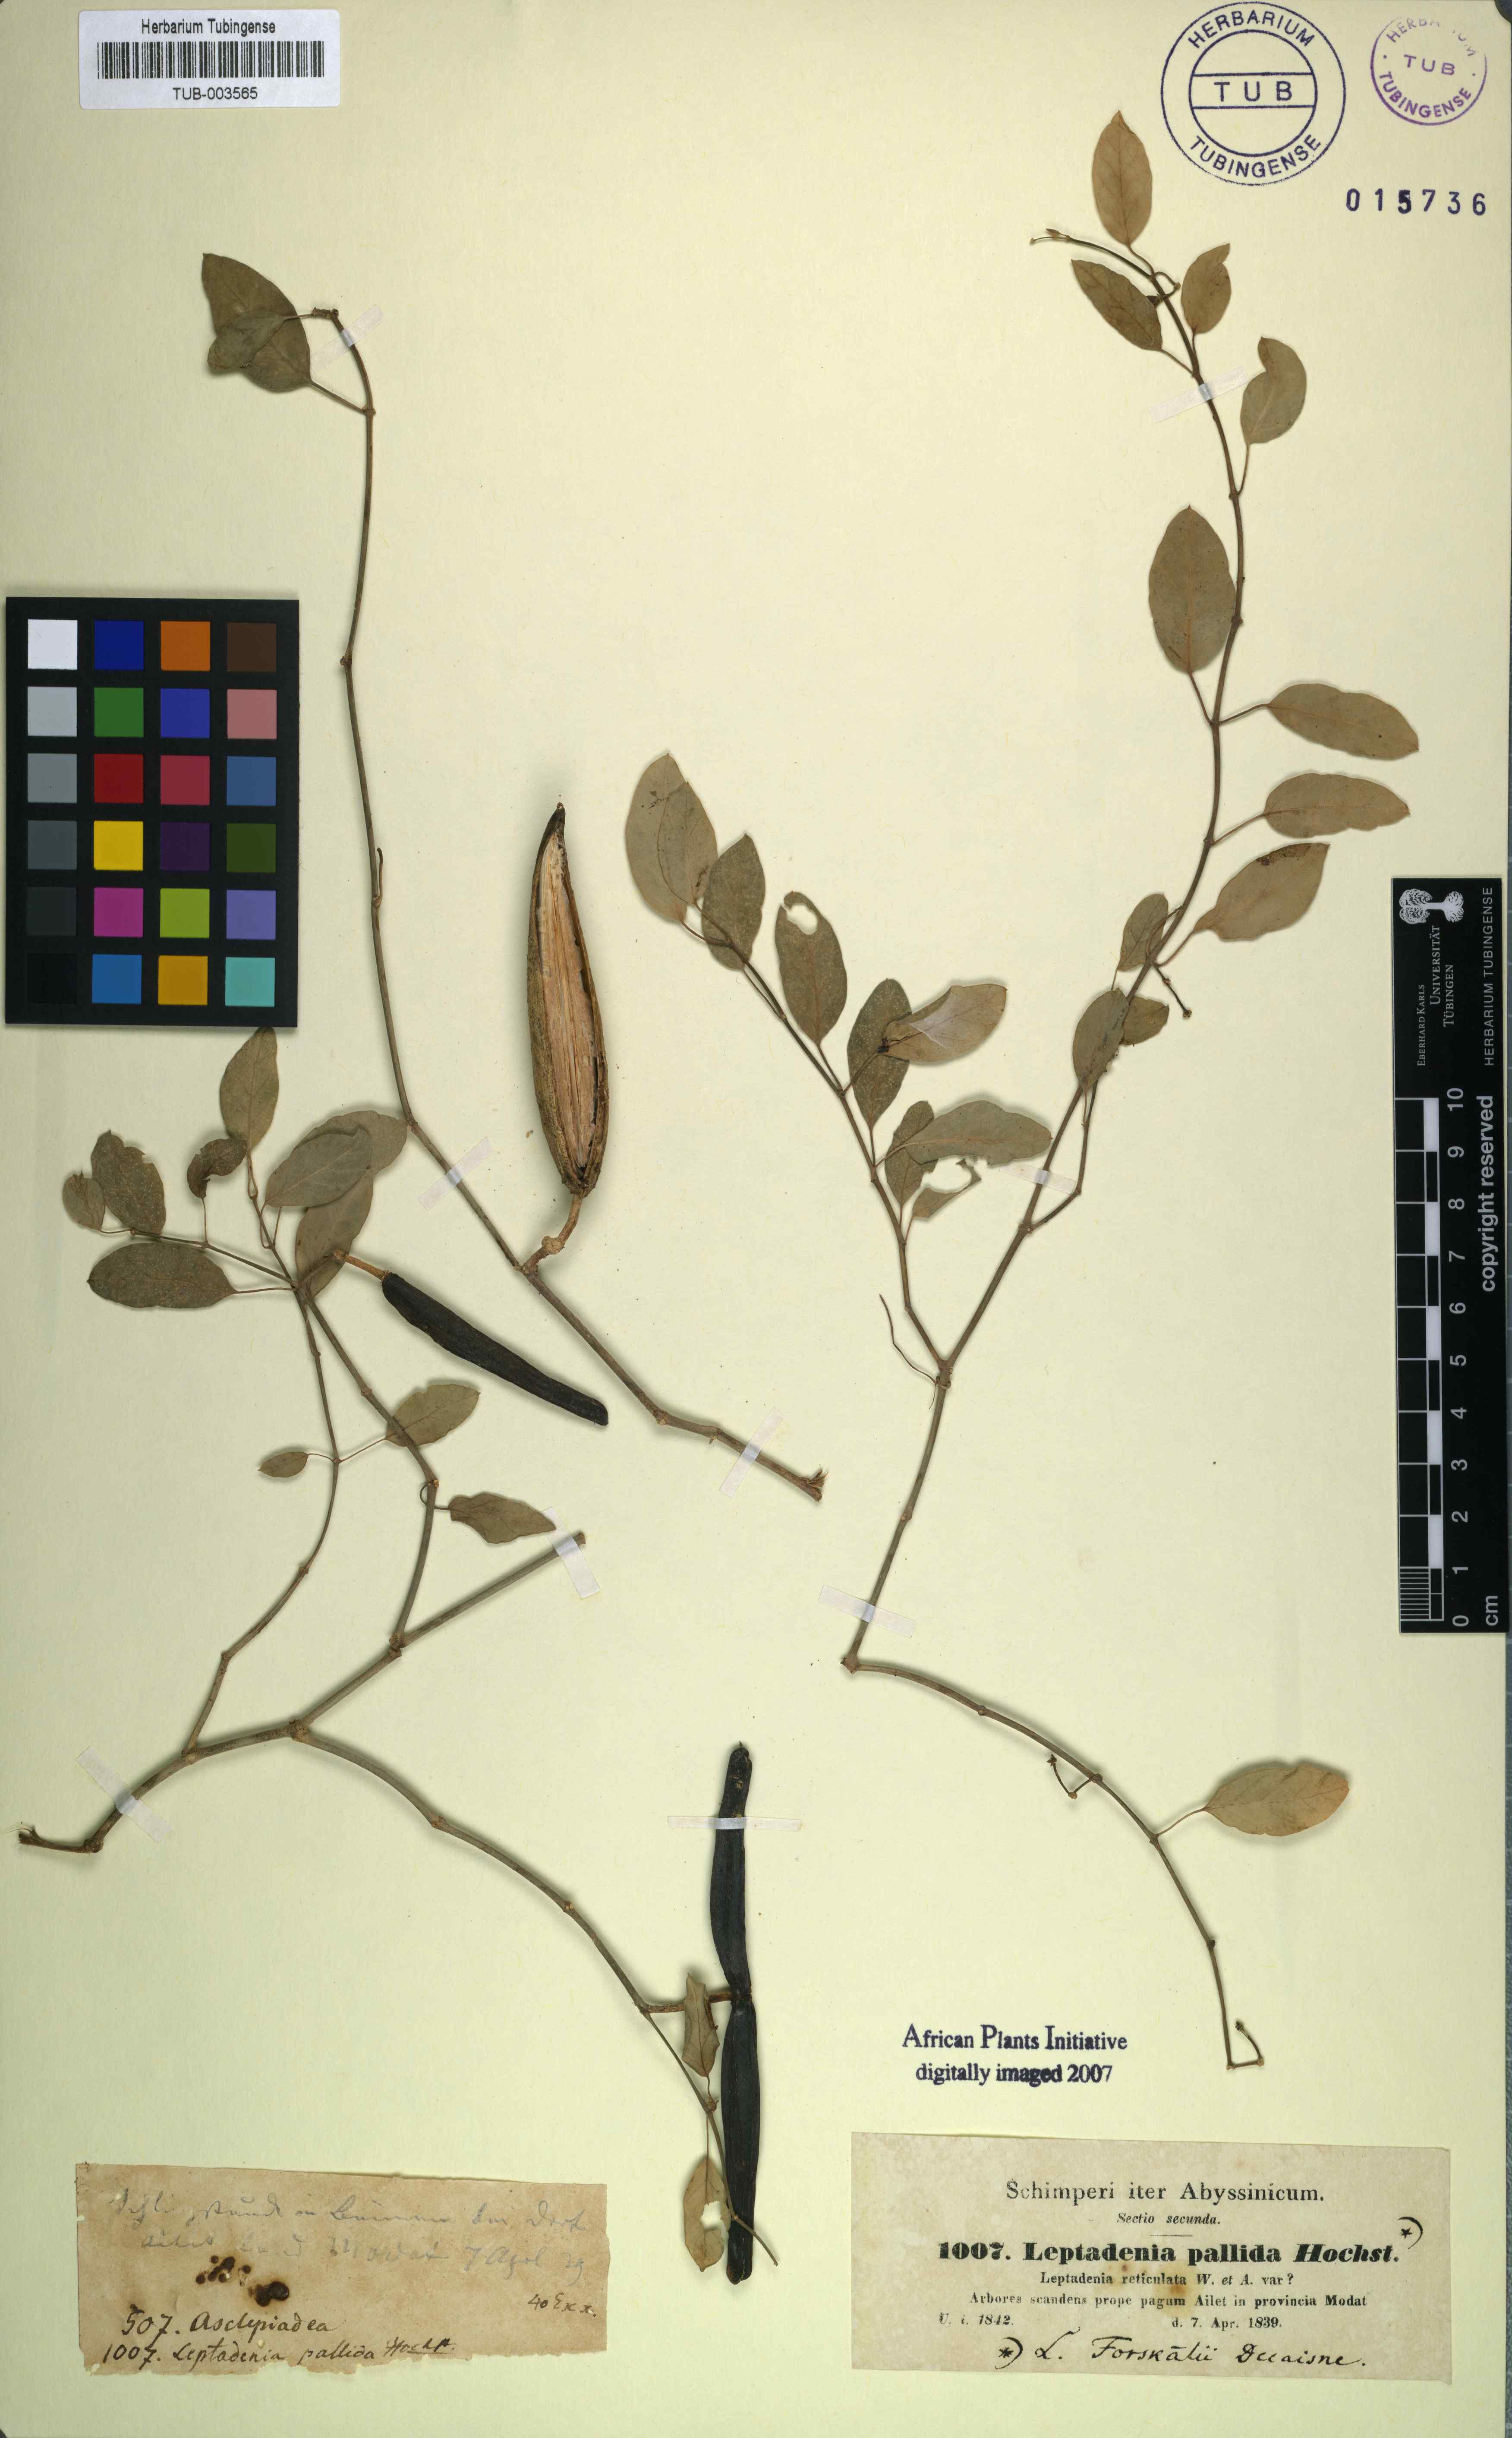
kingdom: Plantae
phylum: Tracheophyta
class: Magnoliopsida
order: Gentianales
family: Apocynaceae
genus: Leptadenia
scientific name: Leptadenia forsskalii
